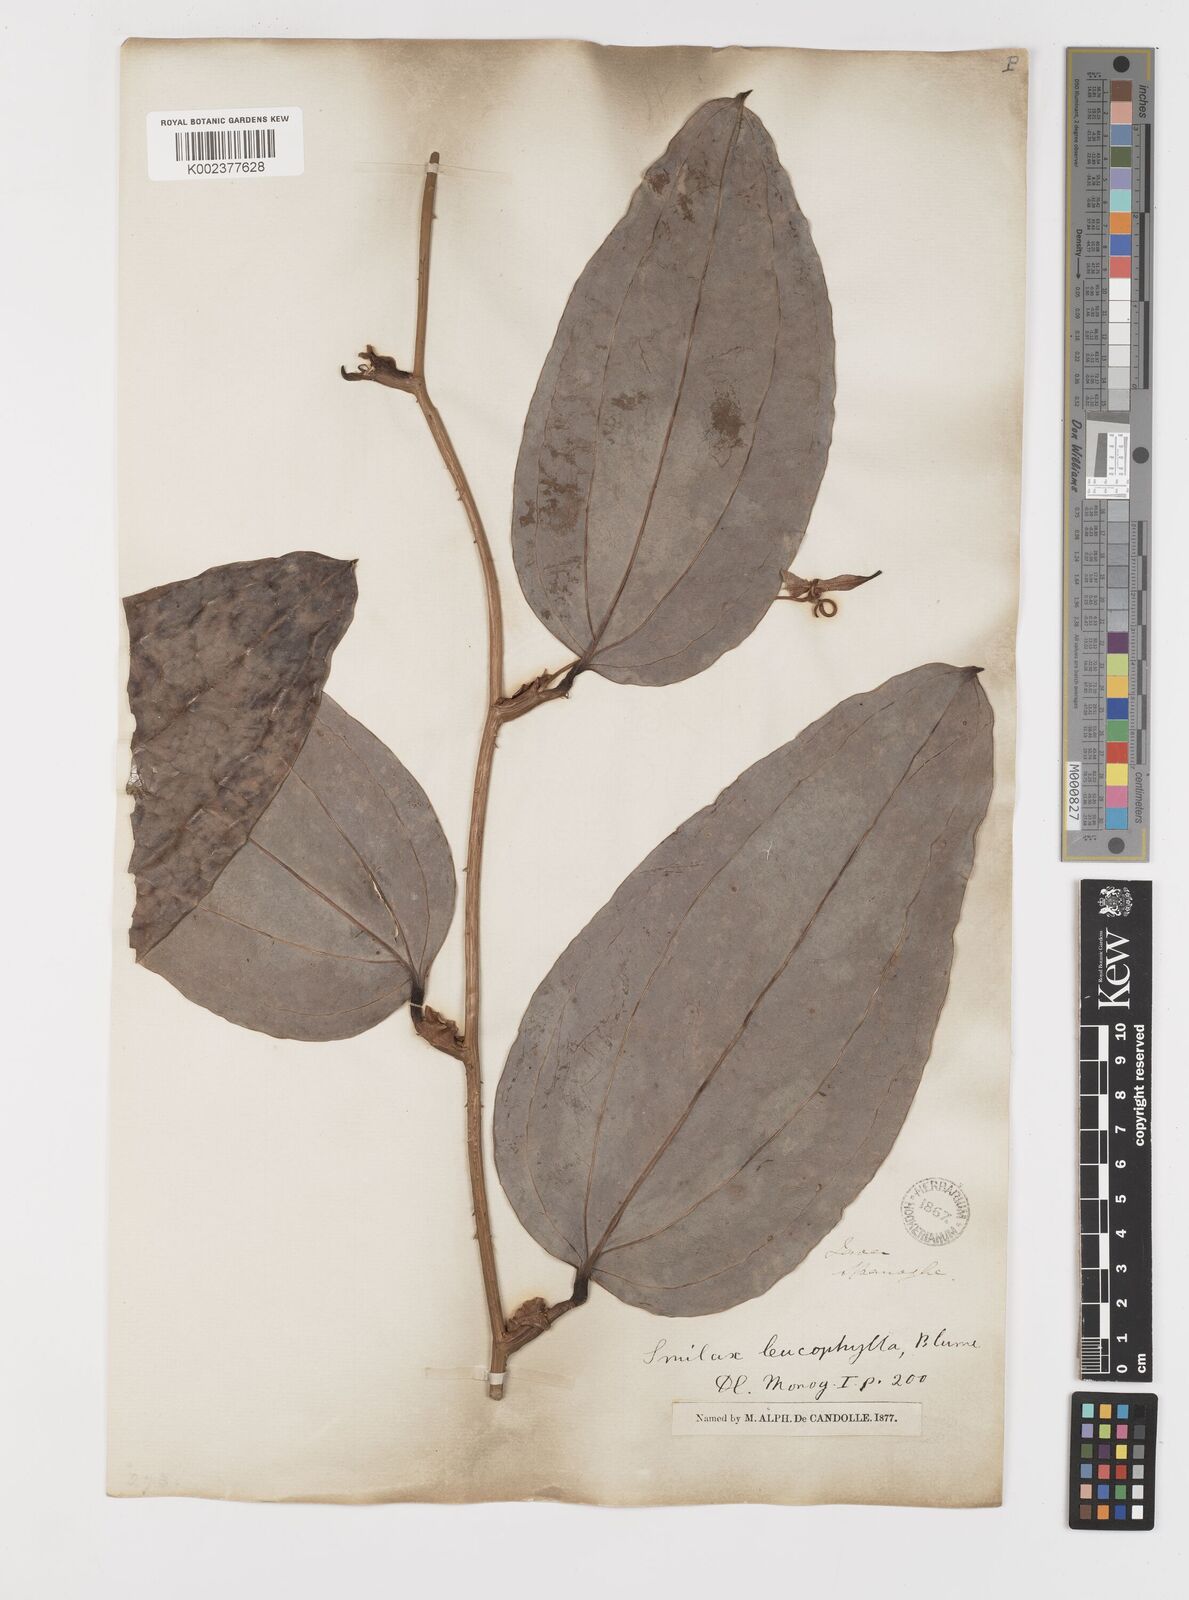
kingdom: Plantae
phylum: Tracheophyta
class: Liliopsida
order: Liliales
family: Smilacaceae
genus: Smilax
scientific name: Smilax leucophylla
